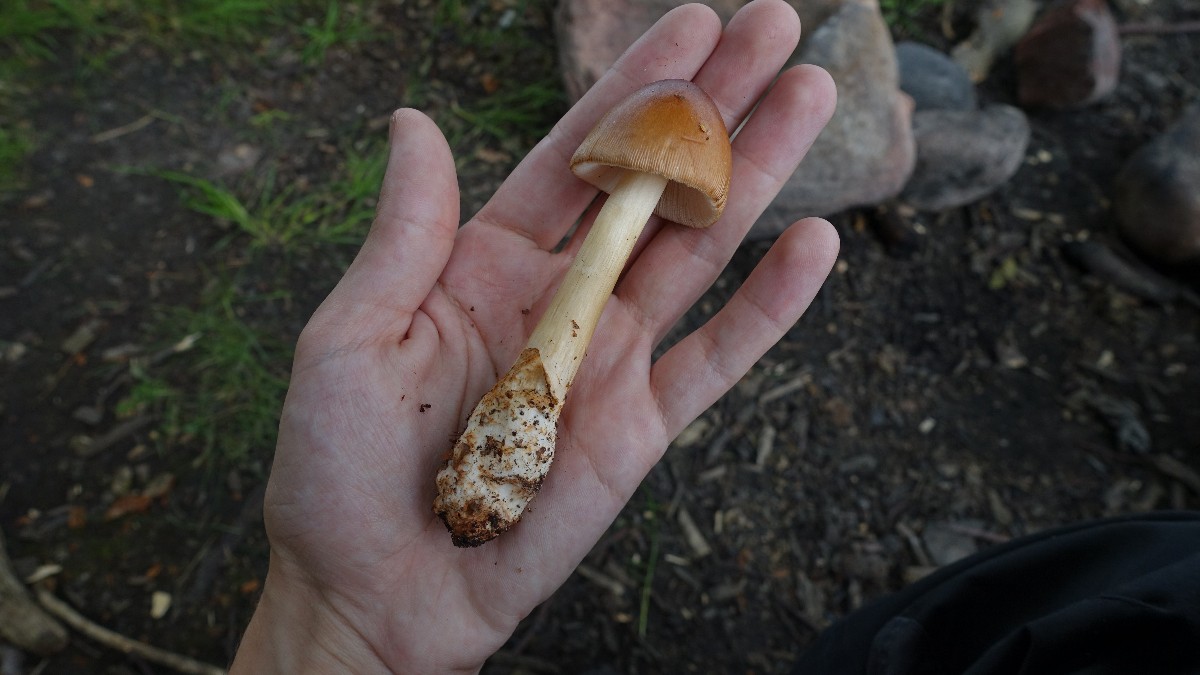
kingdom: Fungi
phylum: Basidiomycota
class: Agaricomycetes
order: Agaricales
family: Amanitaceae
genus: Amanita
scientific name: Amanita fulva
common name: brun kam-fluesvamp
